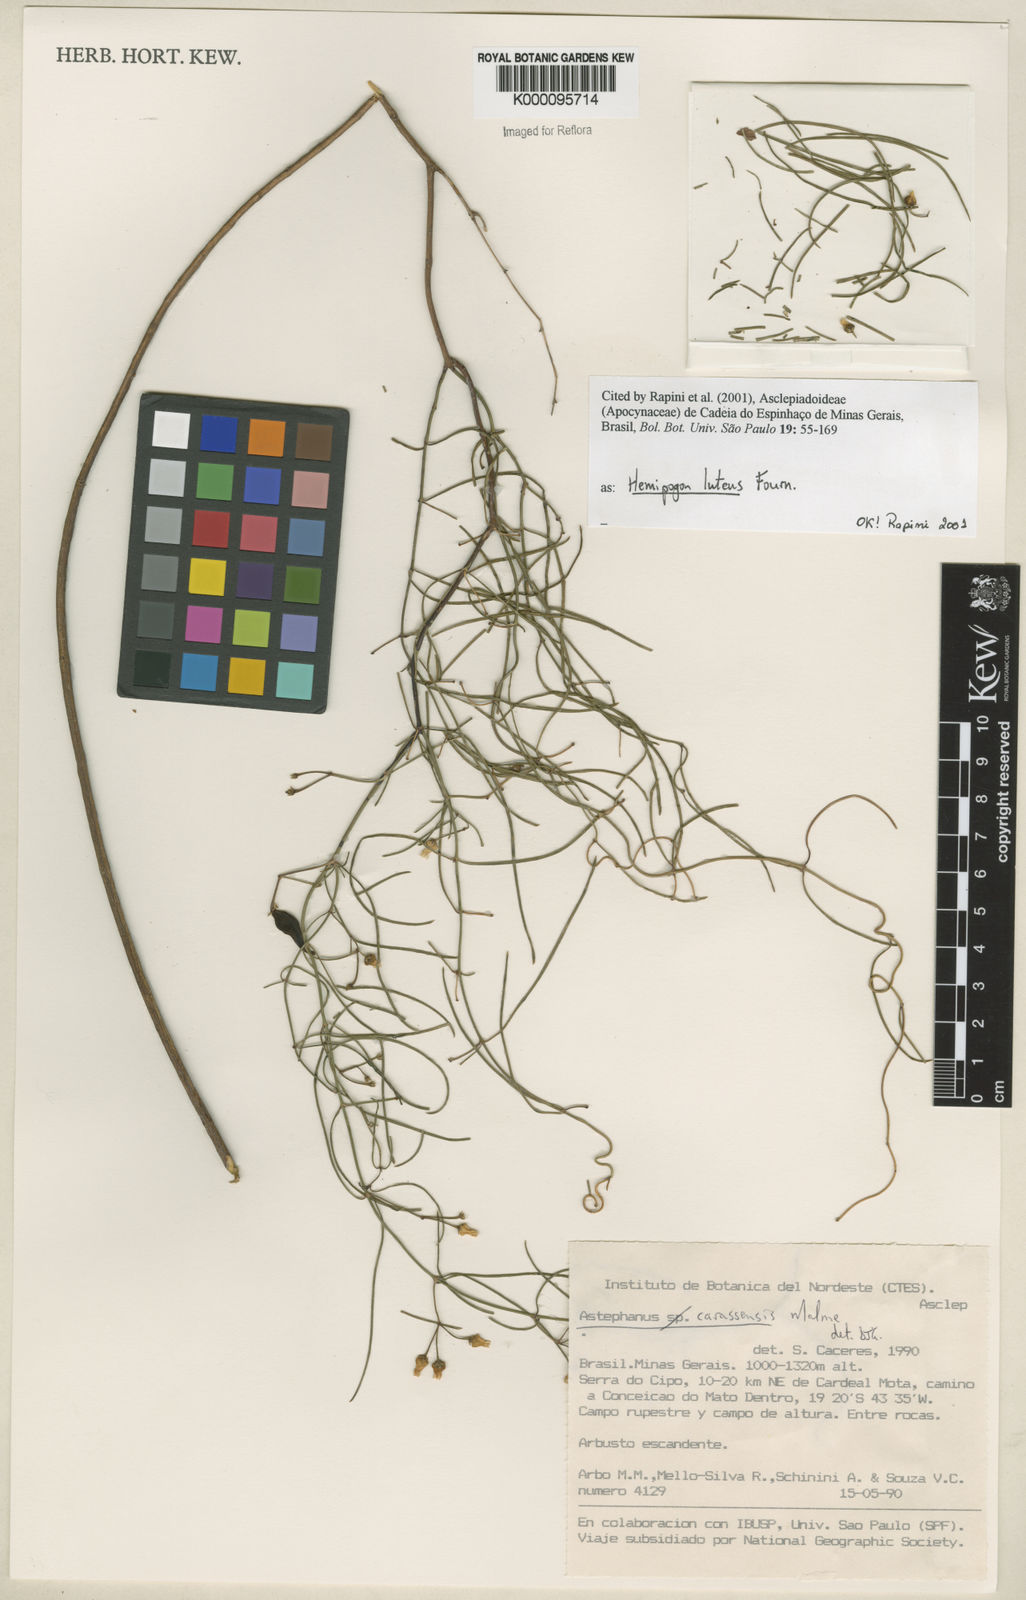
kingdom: Plantae
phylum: Tracheophyta
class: Magnoliopsida
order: Gentianales
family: Apocynaceae
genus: Morilloa
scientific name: Morilloa lutea
